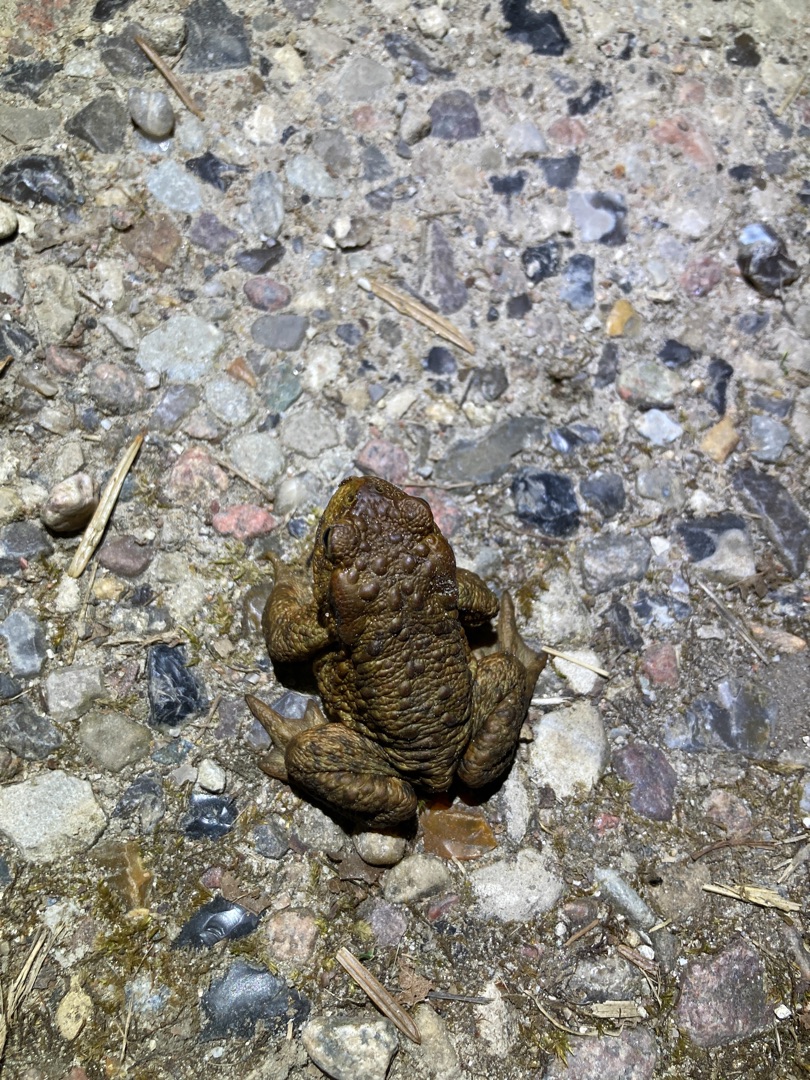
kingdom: Animalia
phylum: Chordata
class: Amphibia
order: Anura
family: Bufonidae
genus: Bufo
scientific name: Bufo bufo
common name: Skrubtudse
